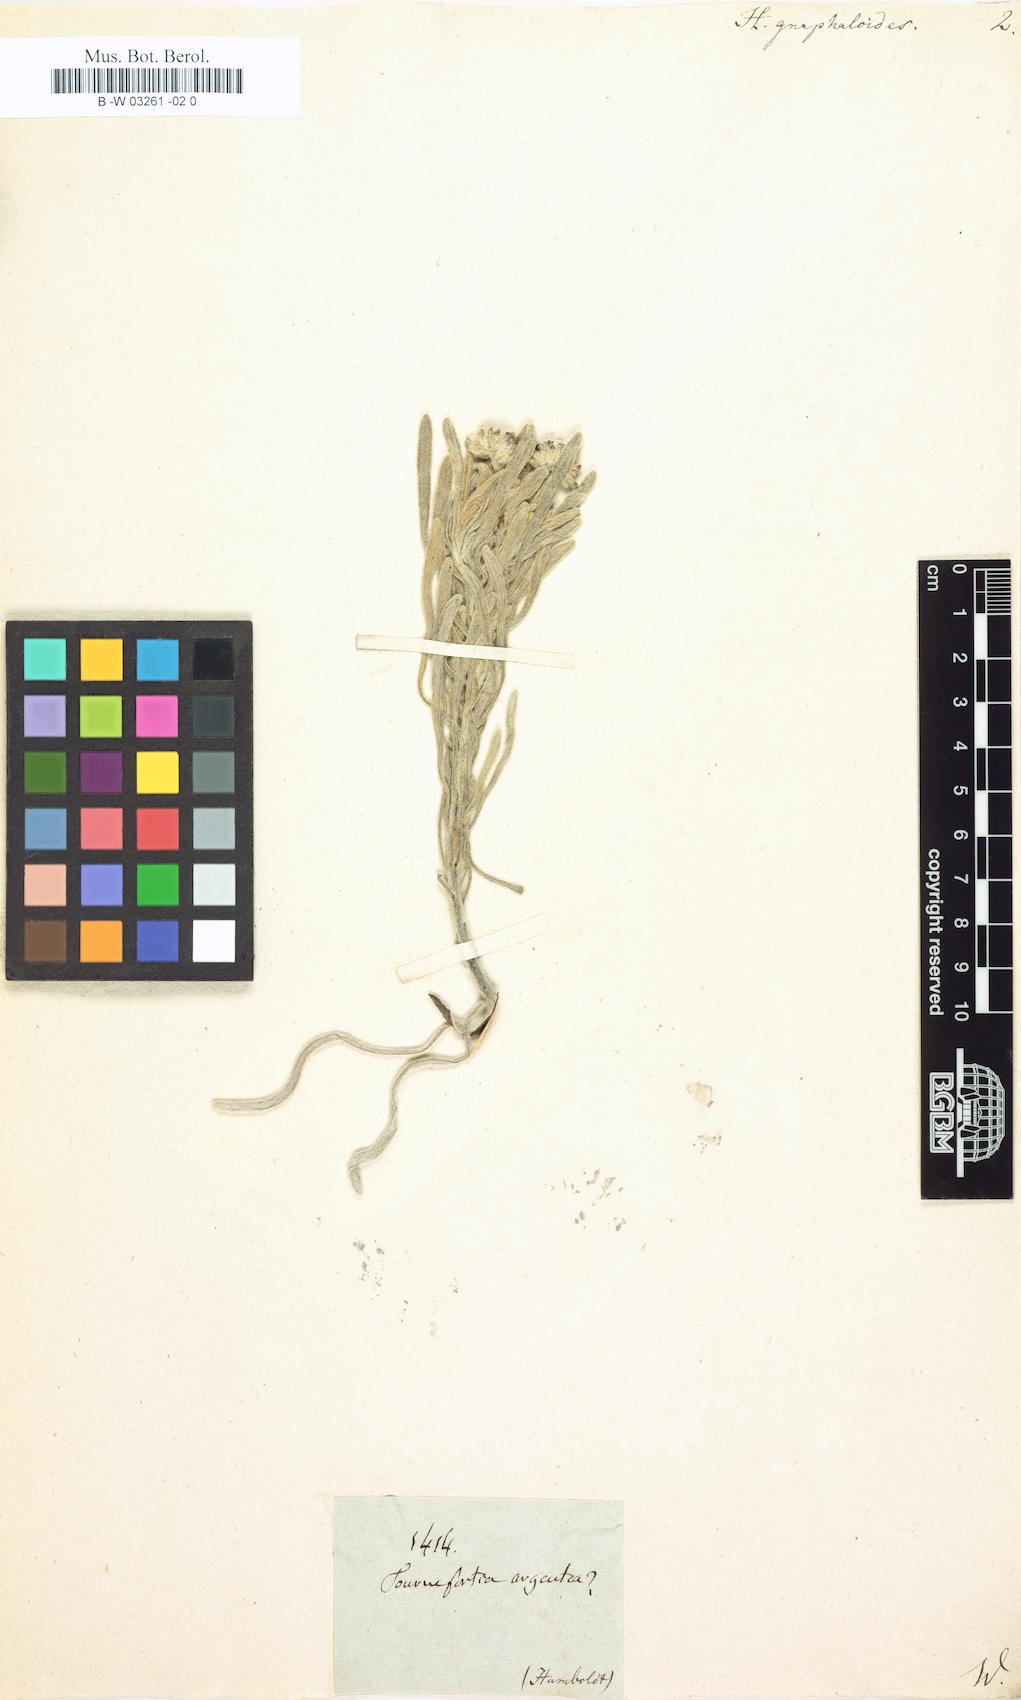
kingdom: Plantae
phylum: Tracheophyta
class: Magnoliopsida
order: Boraginales
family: Heliotropiaceae
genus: Tournefortia
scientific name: Tournefortia gnaphalodes
